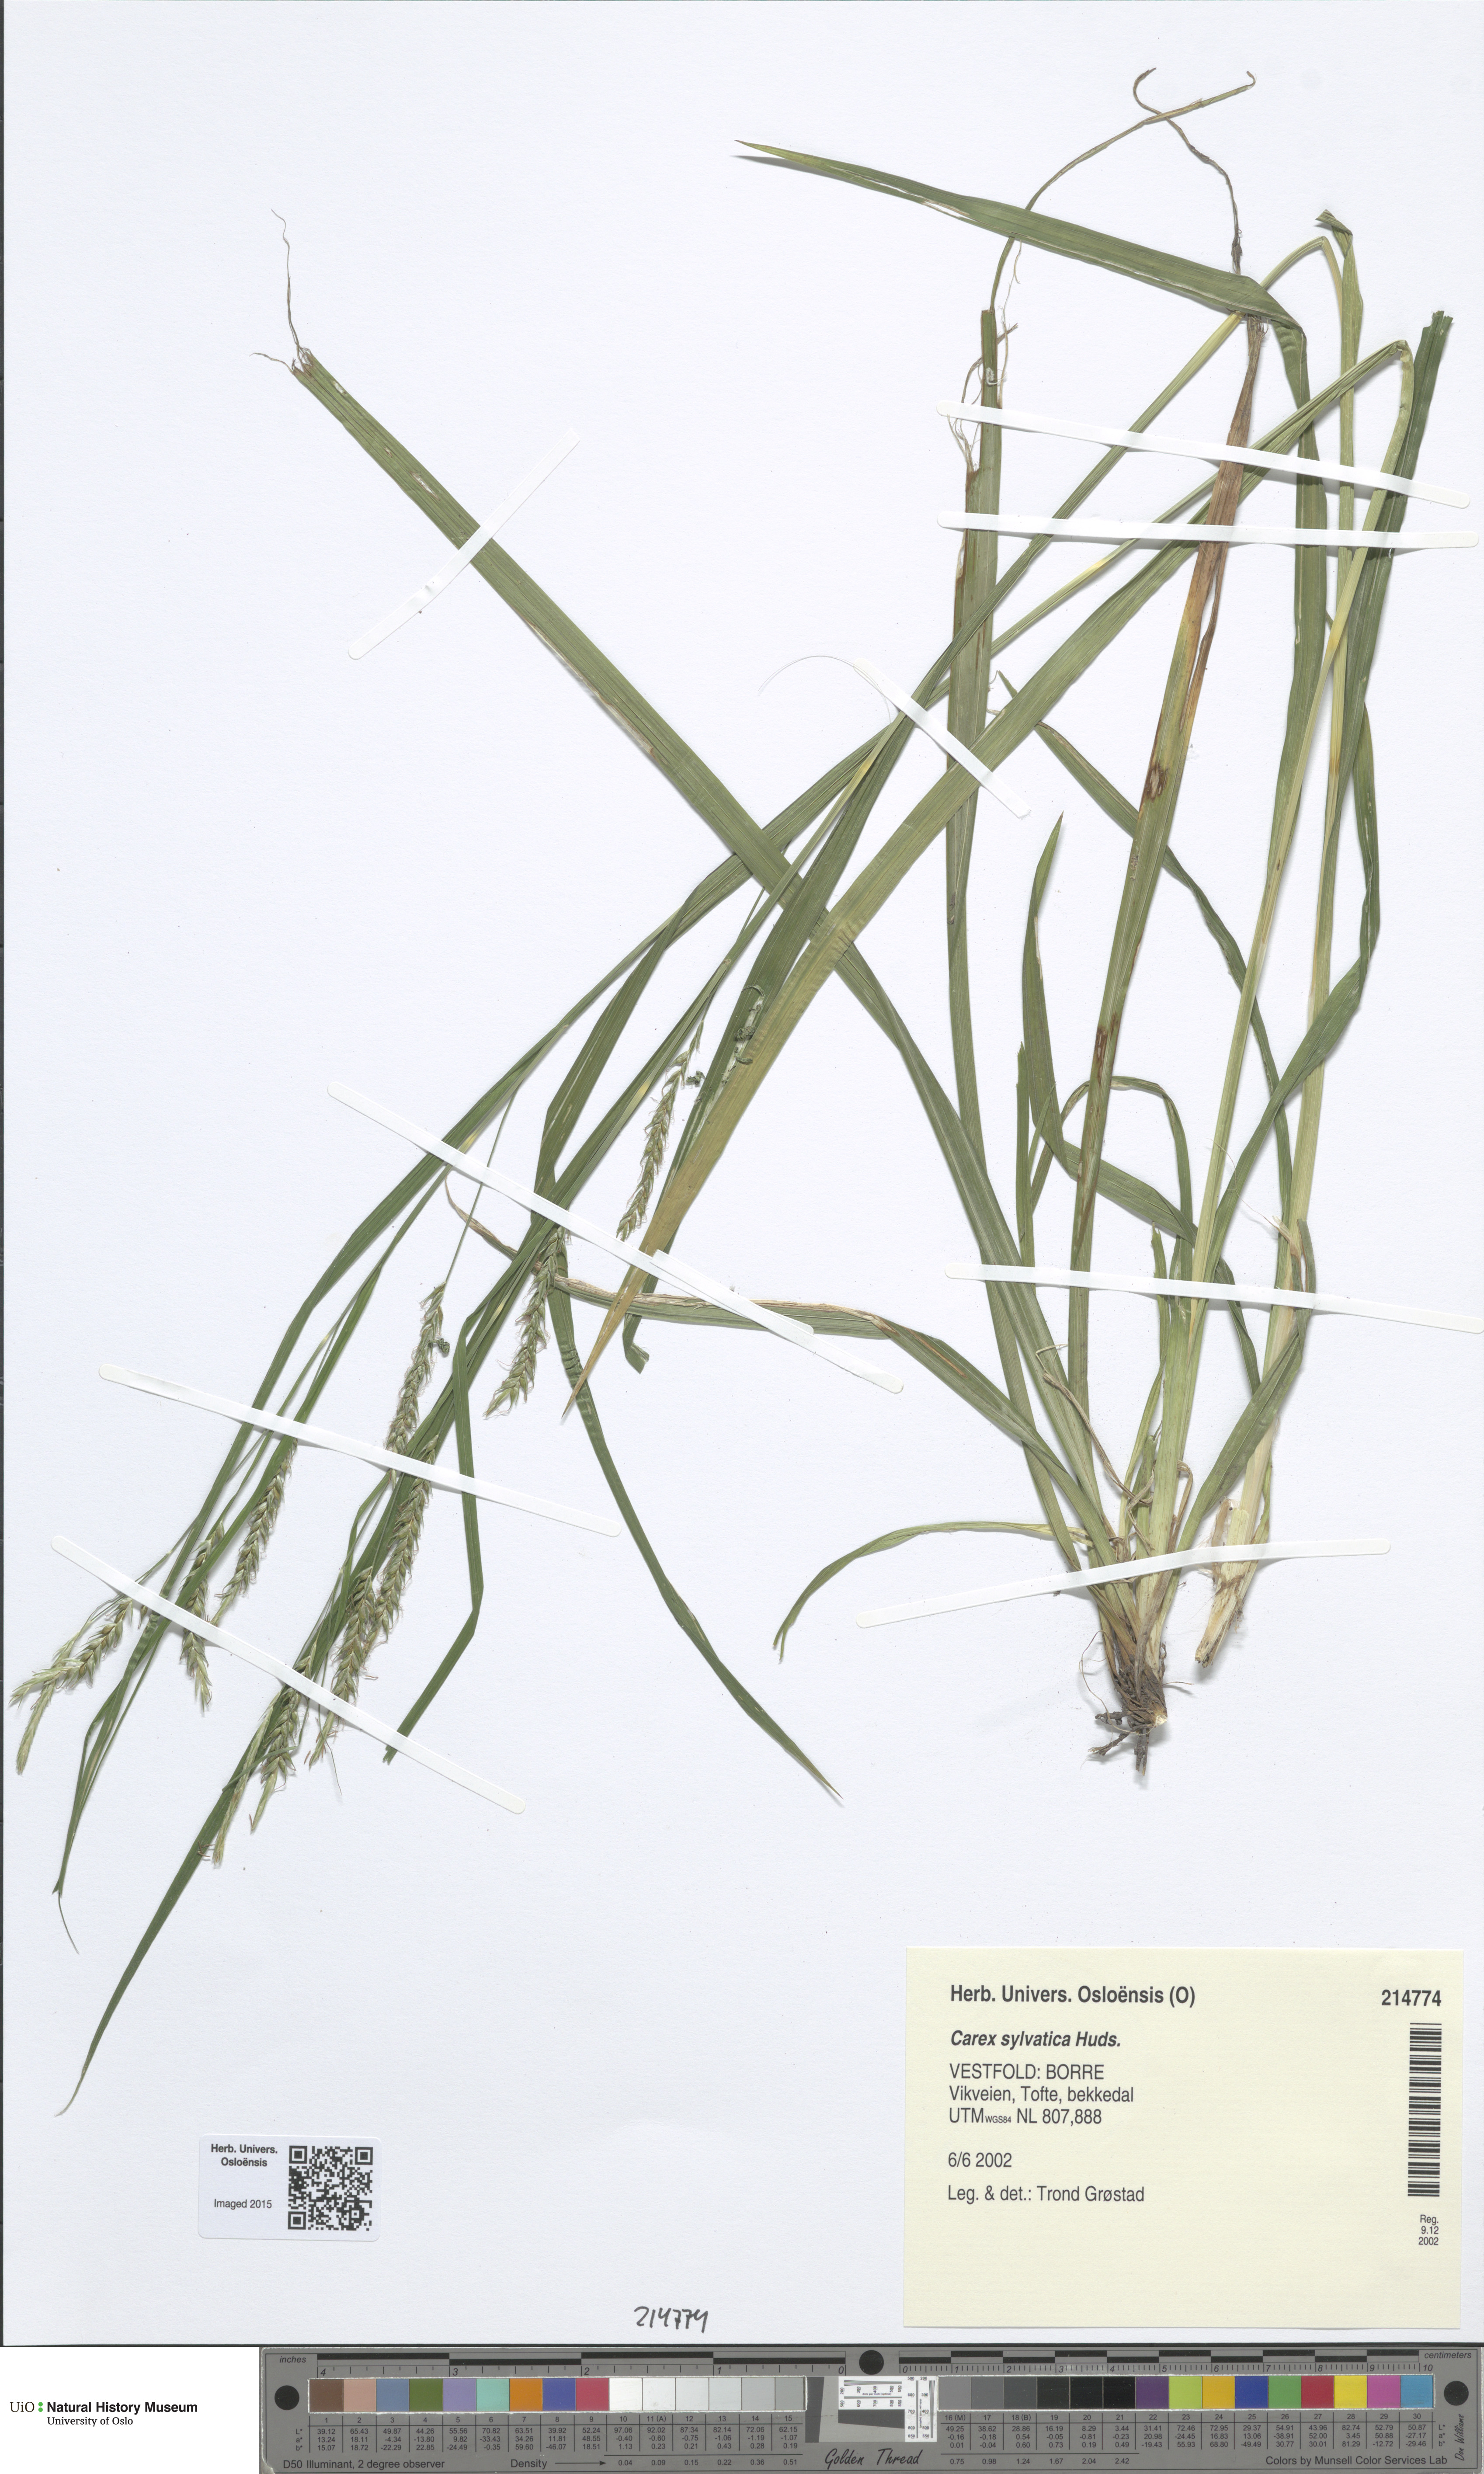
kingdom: Plantae
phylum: Tracheophyta
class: Liliopsida
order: Poales
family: Cyperaceae
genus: Carex
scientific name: Carex sylvatica
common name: Wood-sedge
